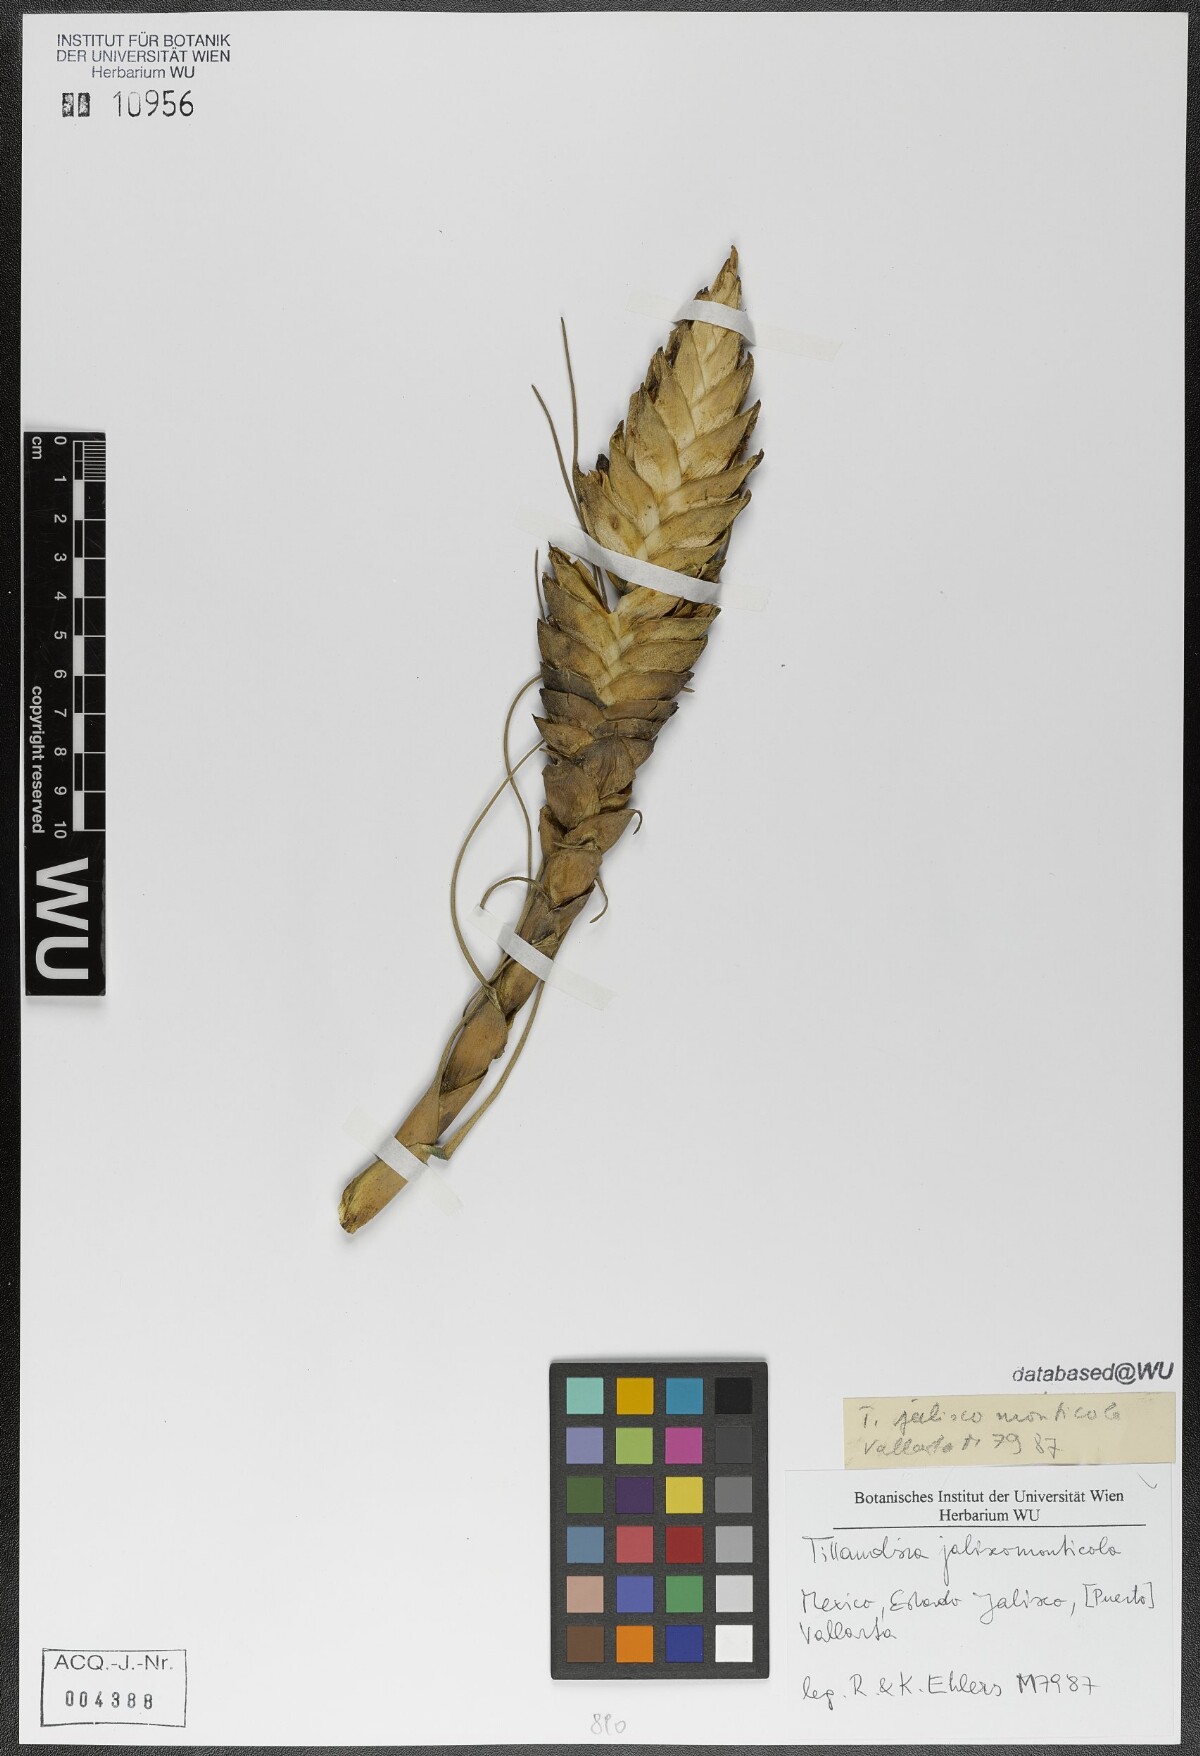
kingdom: Plantae
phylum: Tracheophyta
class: Liliopsida
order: Poales
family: Bromeliaceae
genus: Tillandsia
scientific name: Tillandsia compressa
